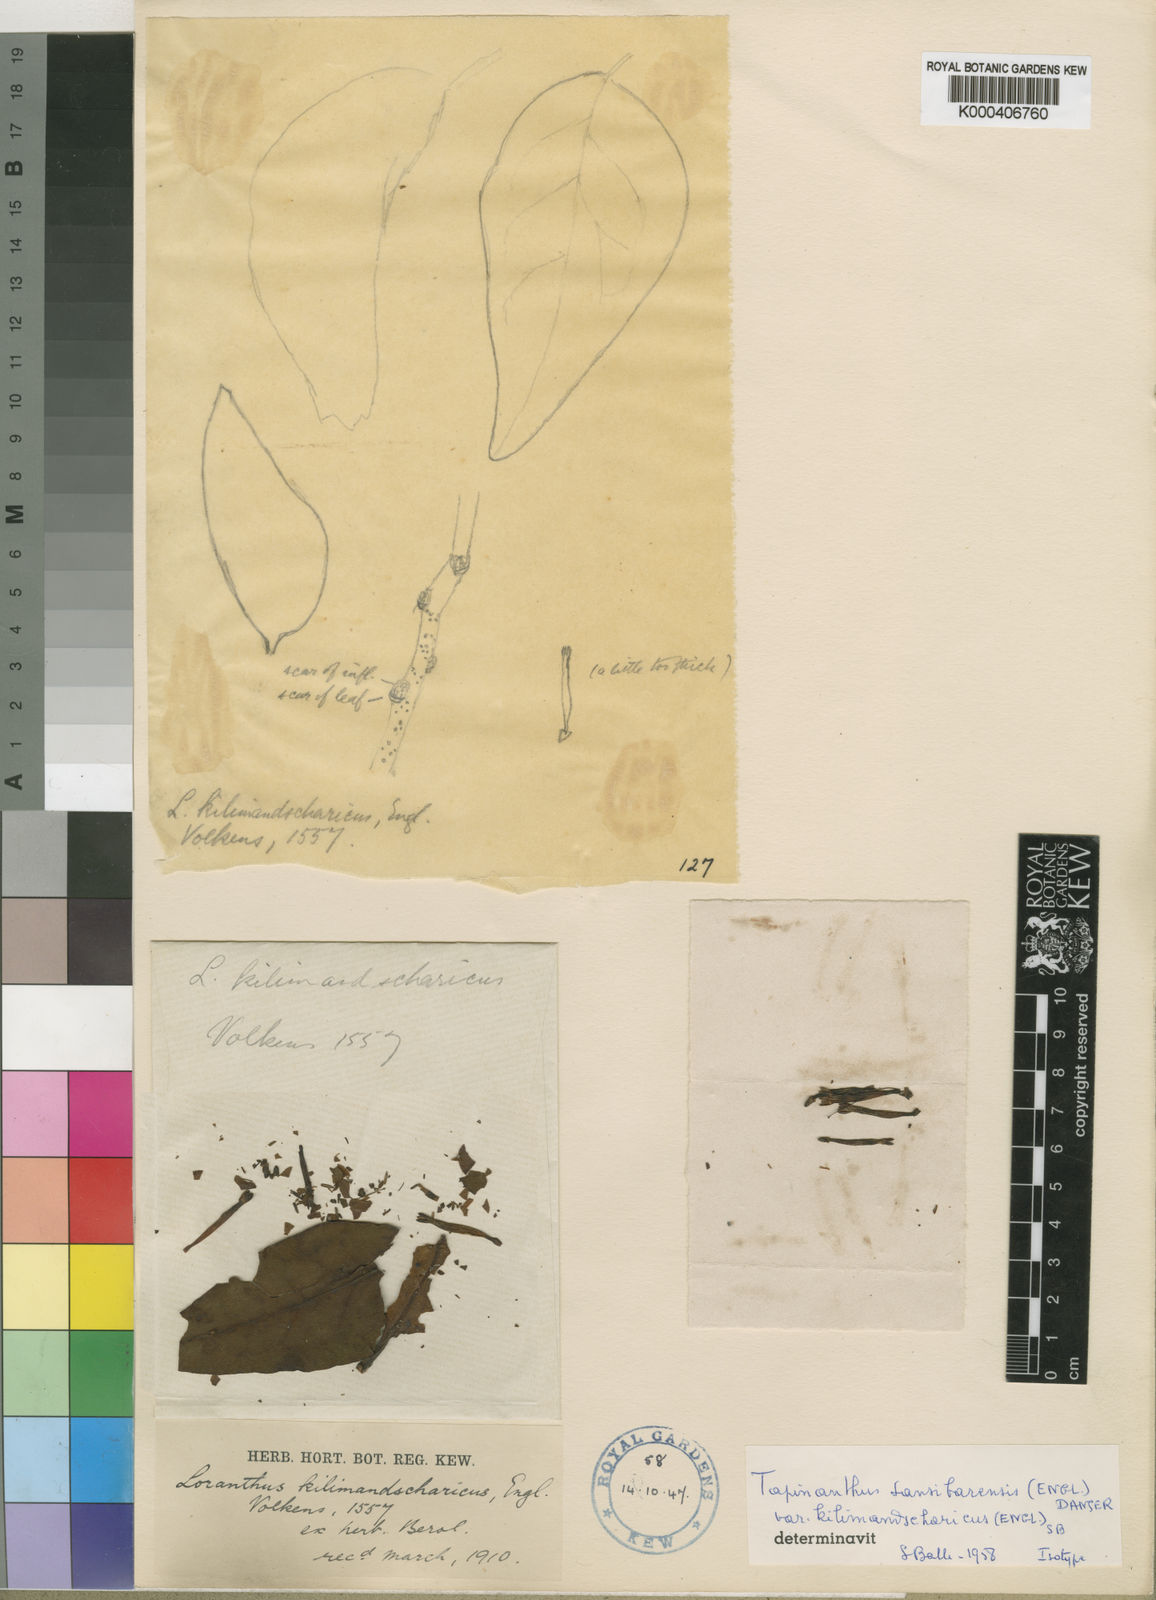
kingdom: Plantae
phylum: Tracheophyta
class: Magnoliopsida
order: Santalales
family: Loranthaceae
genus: Loranthella
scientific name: Loranthella kilimandscharica
